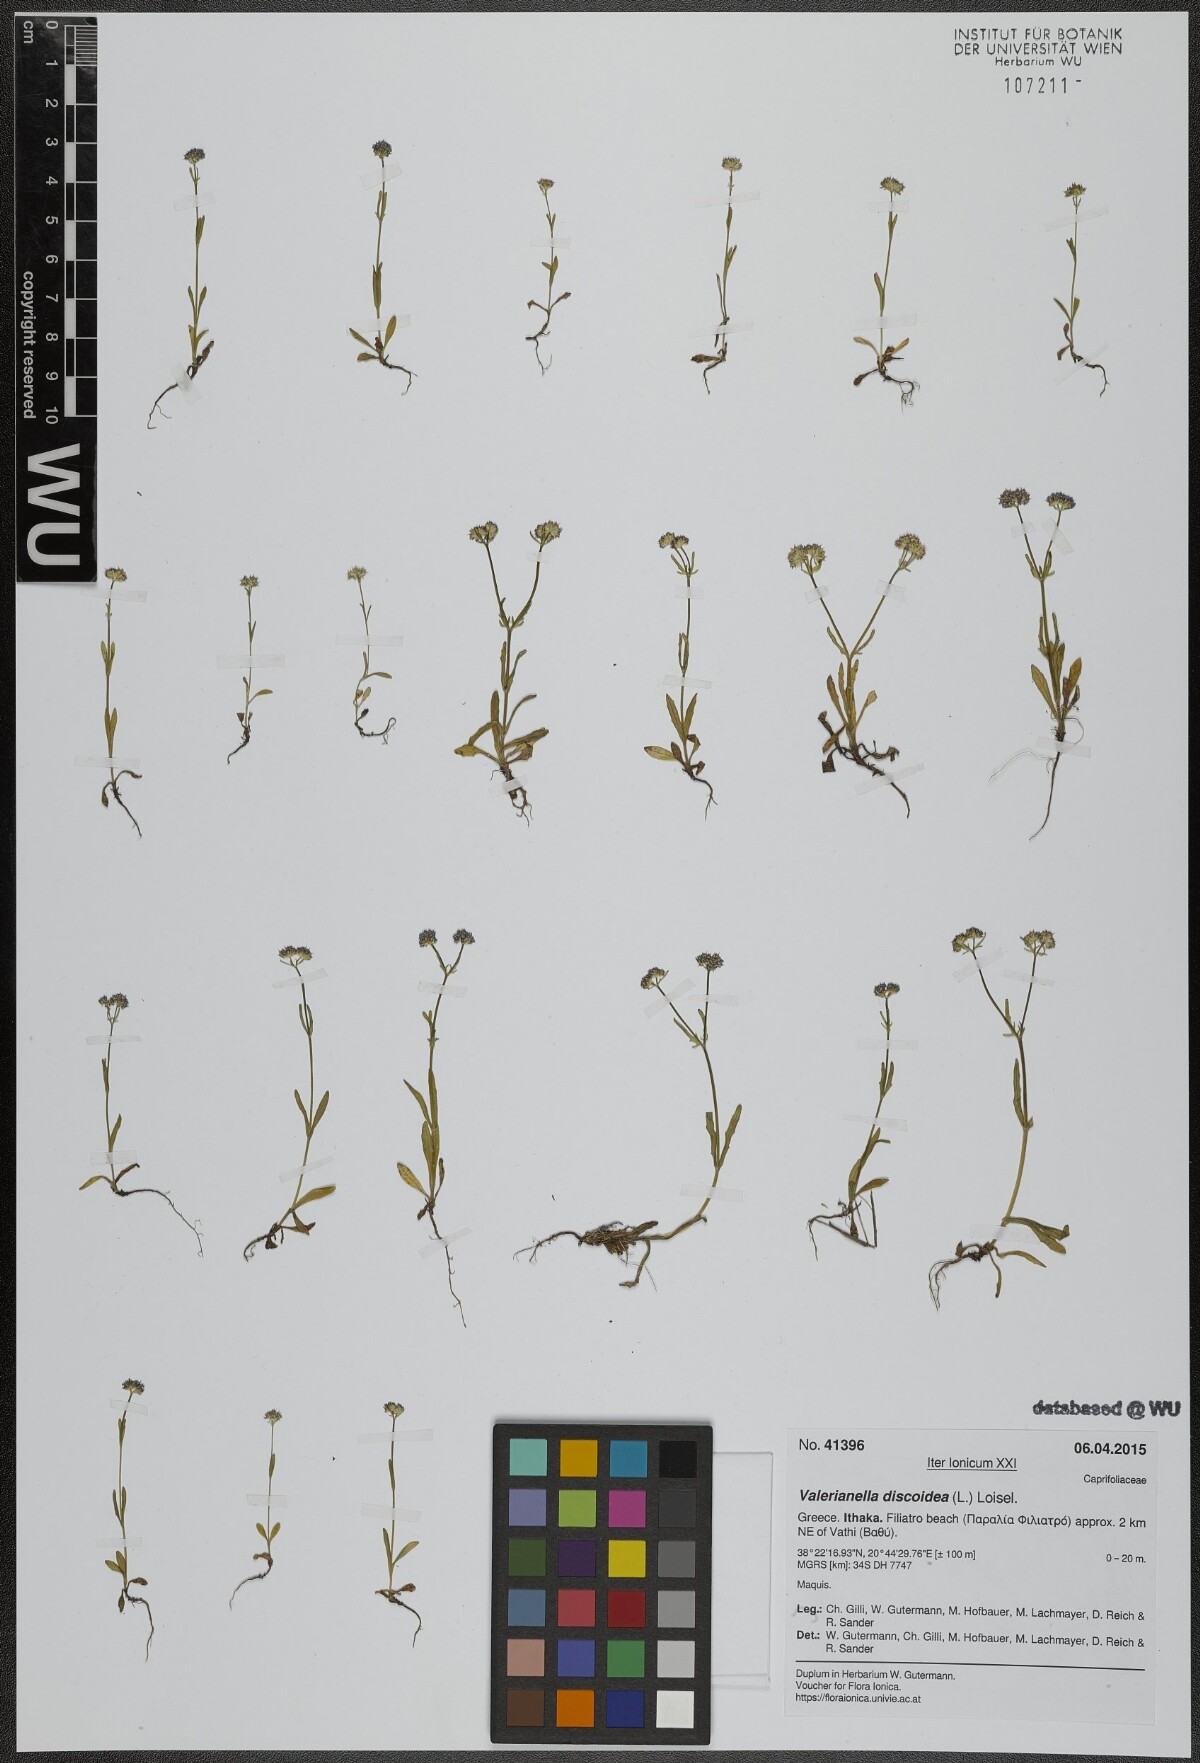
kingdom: Plantae
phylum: Tracheophyta
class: Magnoliopsida
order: Dipsacales
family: Caprifoliaceae
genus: Valerianella
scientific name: Valerianella discoidea
